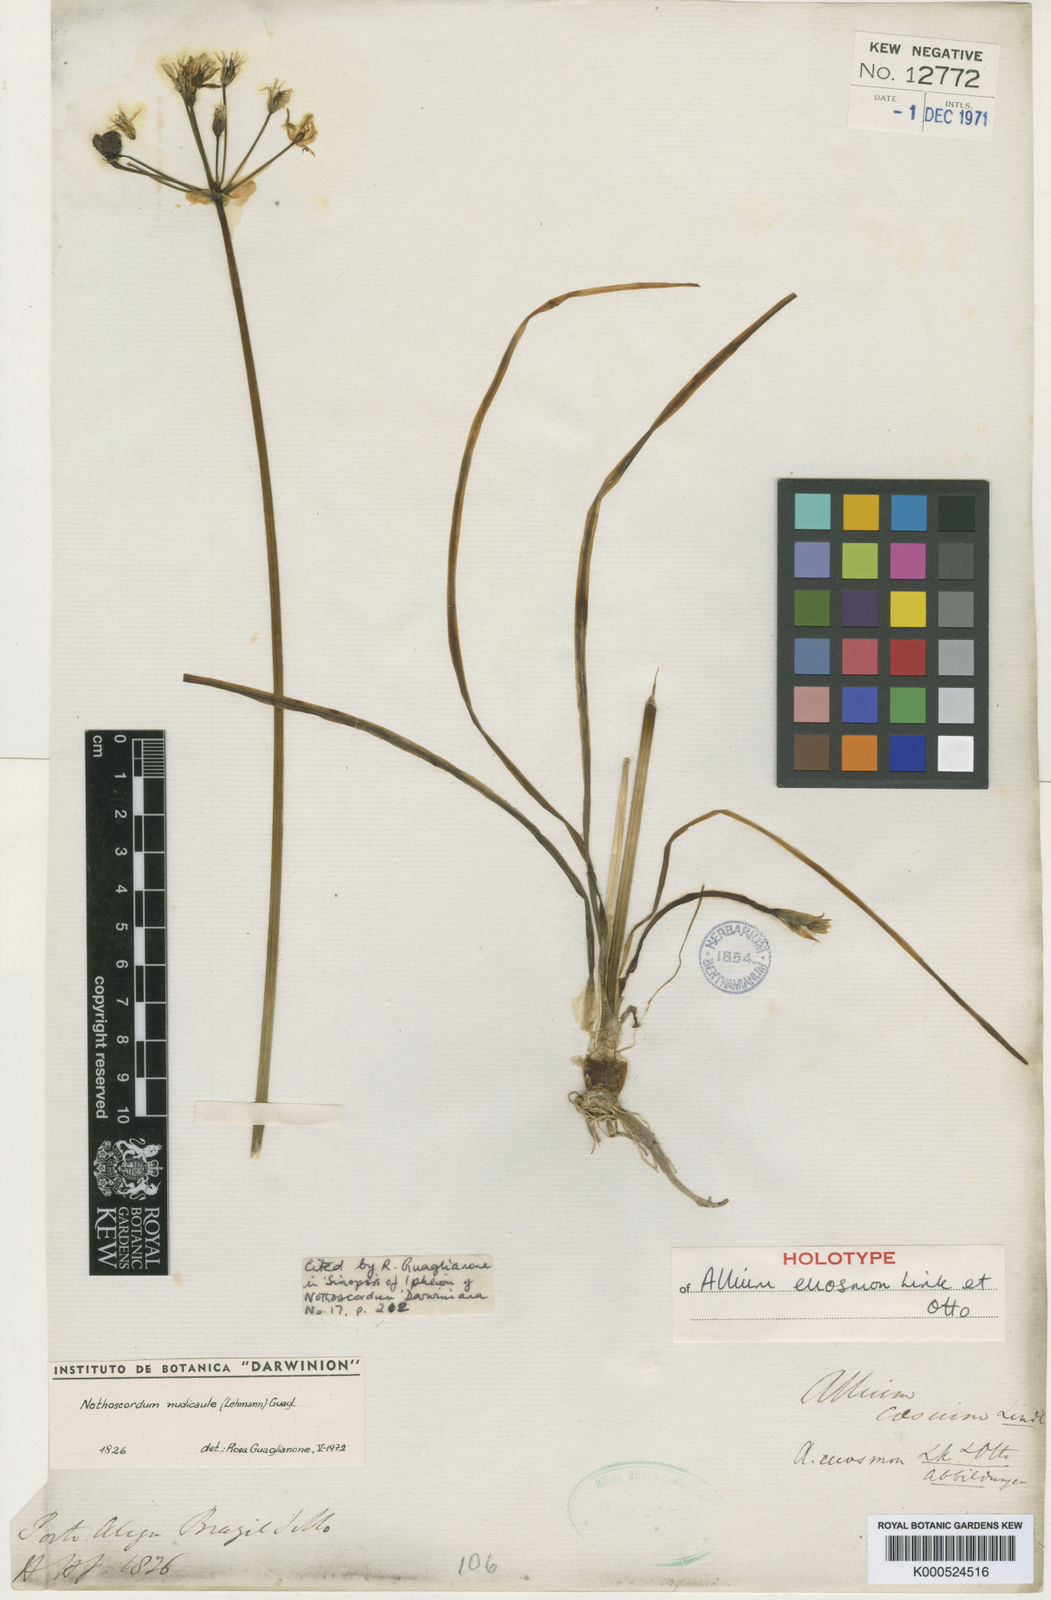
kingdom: Plantae
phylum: Tracheophyta
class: Liliopsida
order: Asparagales
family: Amaryllidaceae
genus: Nothoscordum
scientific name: Nothoscordum nudicaule
